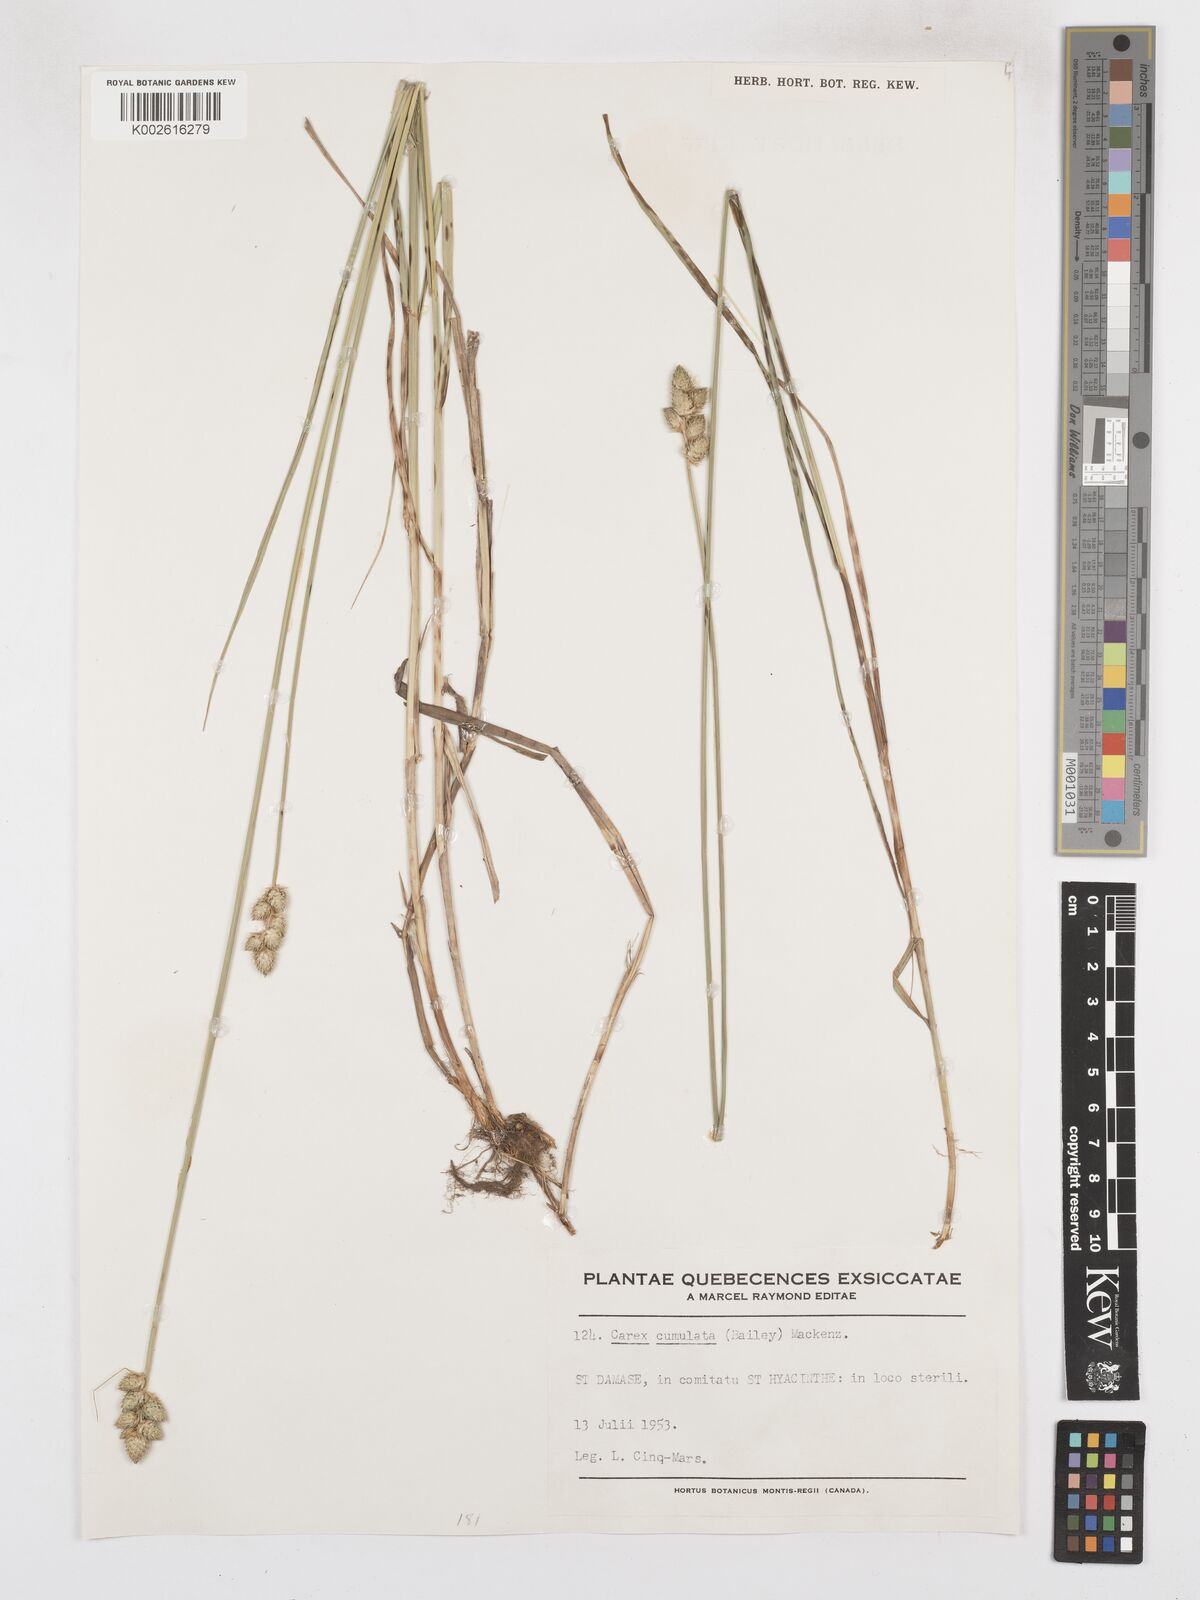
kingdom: Plantae
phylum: Tracheophyta
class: Liliopsida
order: Poales
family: Cyperaceae
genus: Carex
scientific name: Carex cumulata
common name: Accumulating sedge
